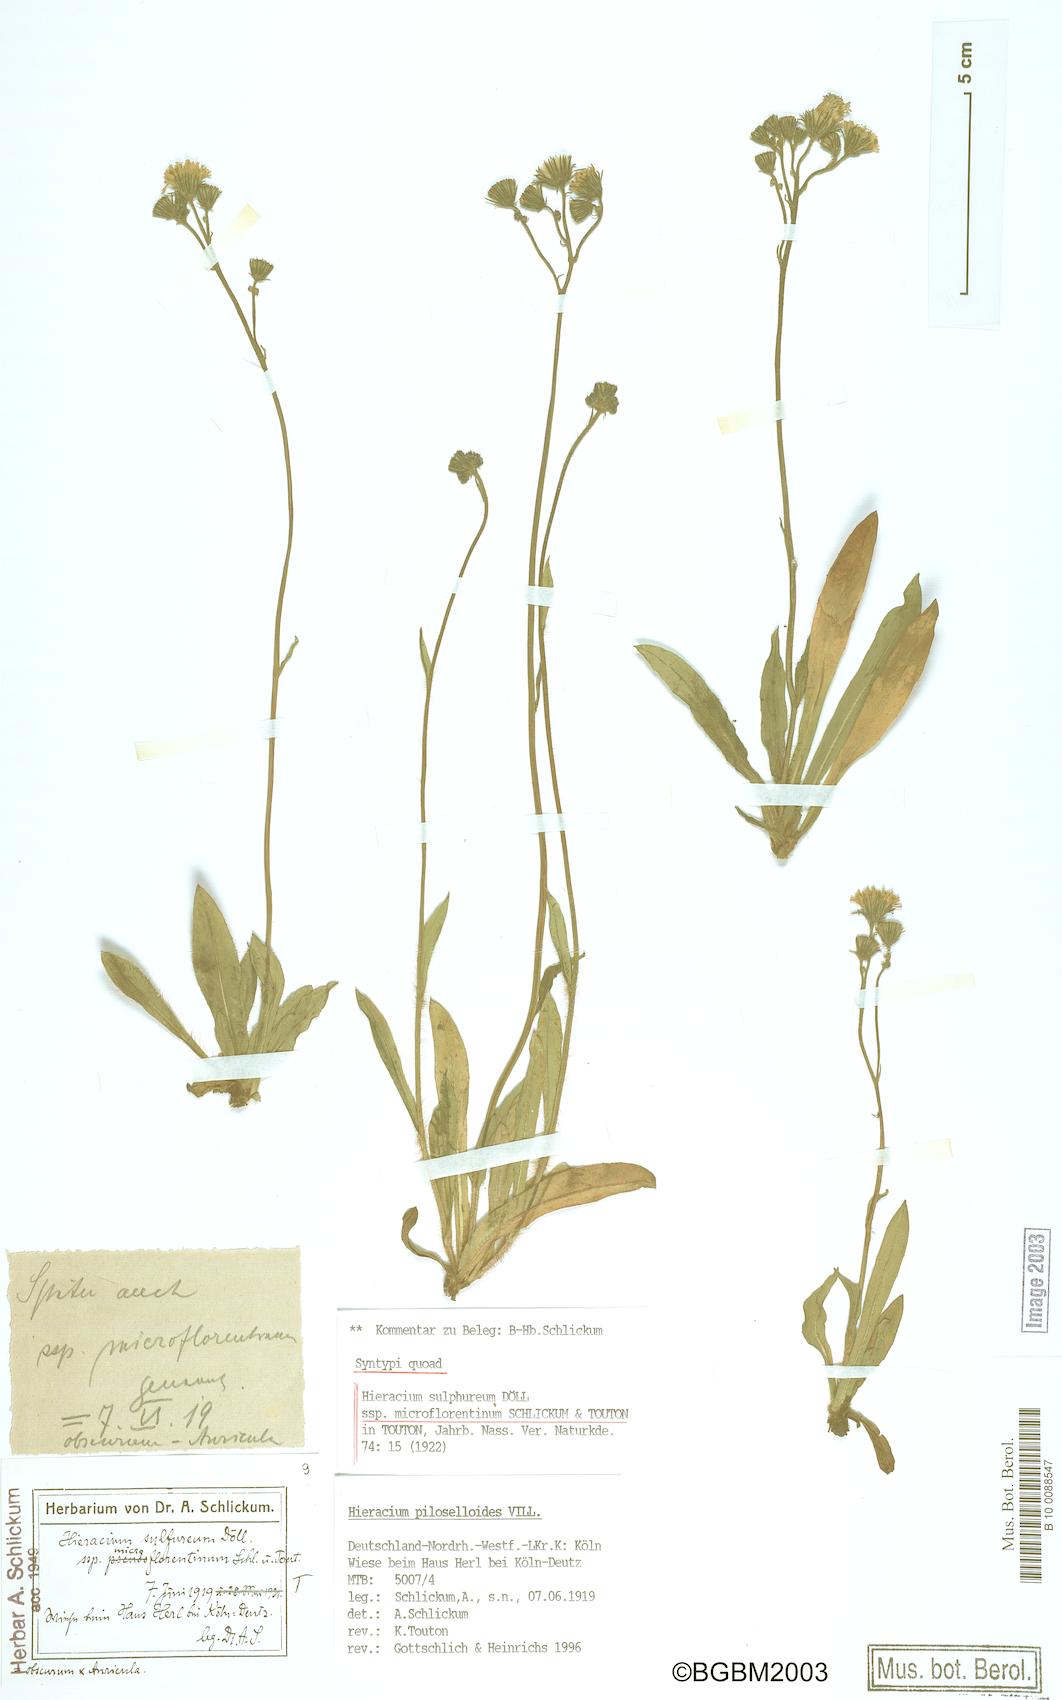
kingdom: Plantae
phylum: Tracheophyta
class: Magnoliopsida
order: Asterales
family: Asteraceae
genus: Pilosella
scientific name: Pilosella piloselloides
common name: Glaucous king-devil
